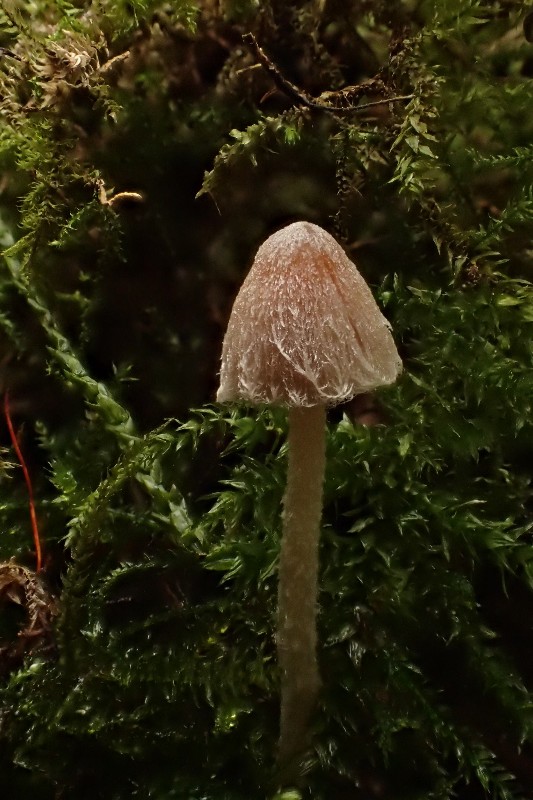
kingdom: Fungi
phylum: Basidiomycota
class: Agaricomycetes
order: Agaricales
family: Psathyrellaceae
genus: Coprinopsis
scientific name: Coprinopsis canoceps
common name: gråhåret blækhat
